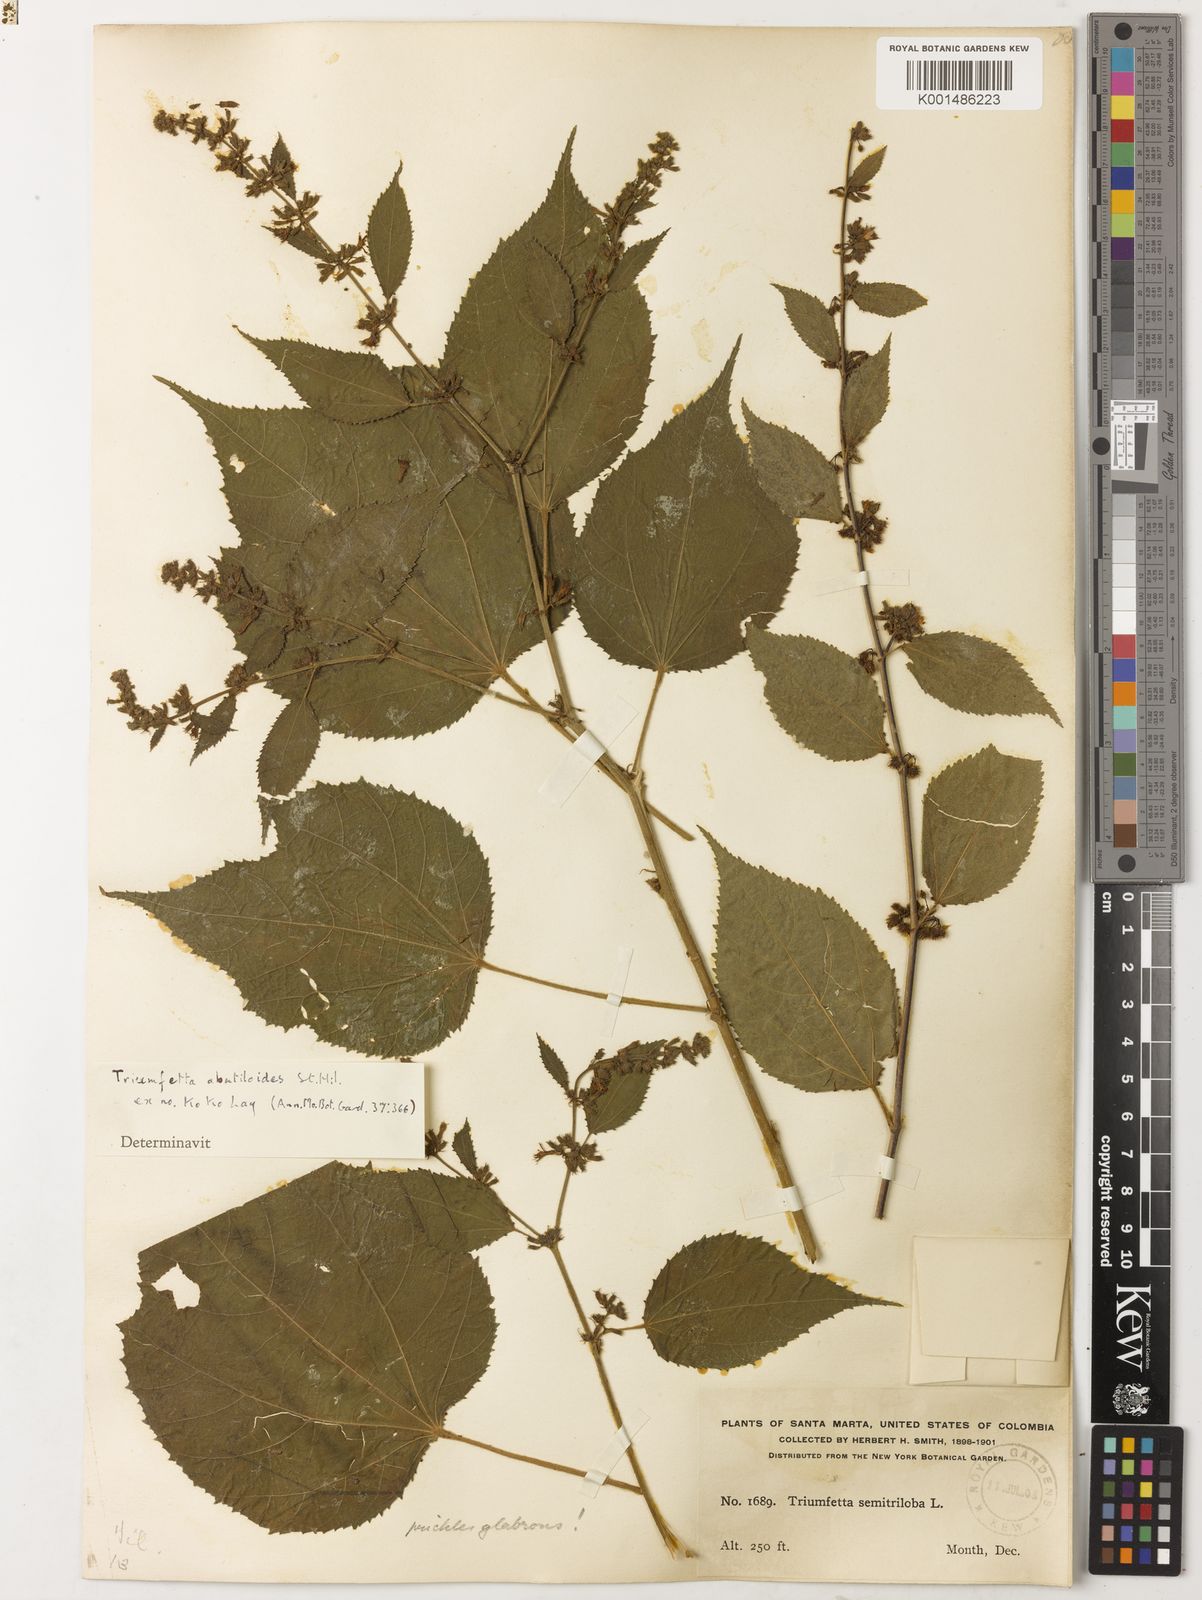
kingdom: Plantae
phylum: Tracheophyta
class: Magnoliopsida
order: Malvales
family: Malvaceae
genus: Triumfetta
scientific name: Triumfetta abutiloides
